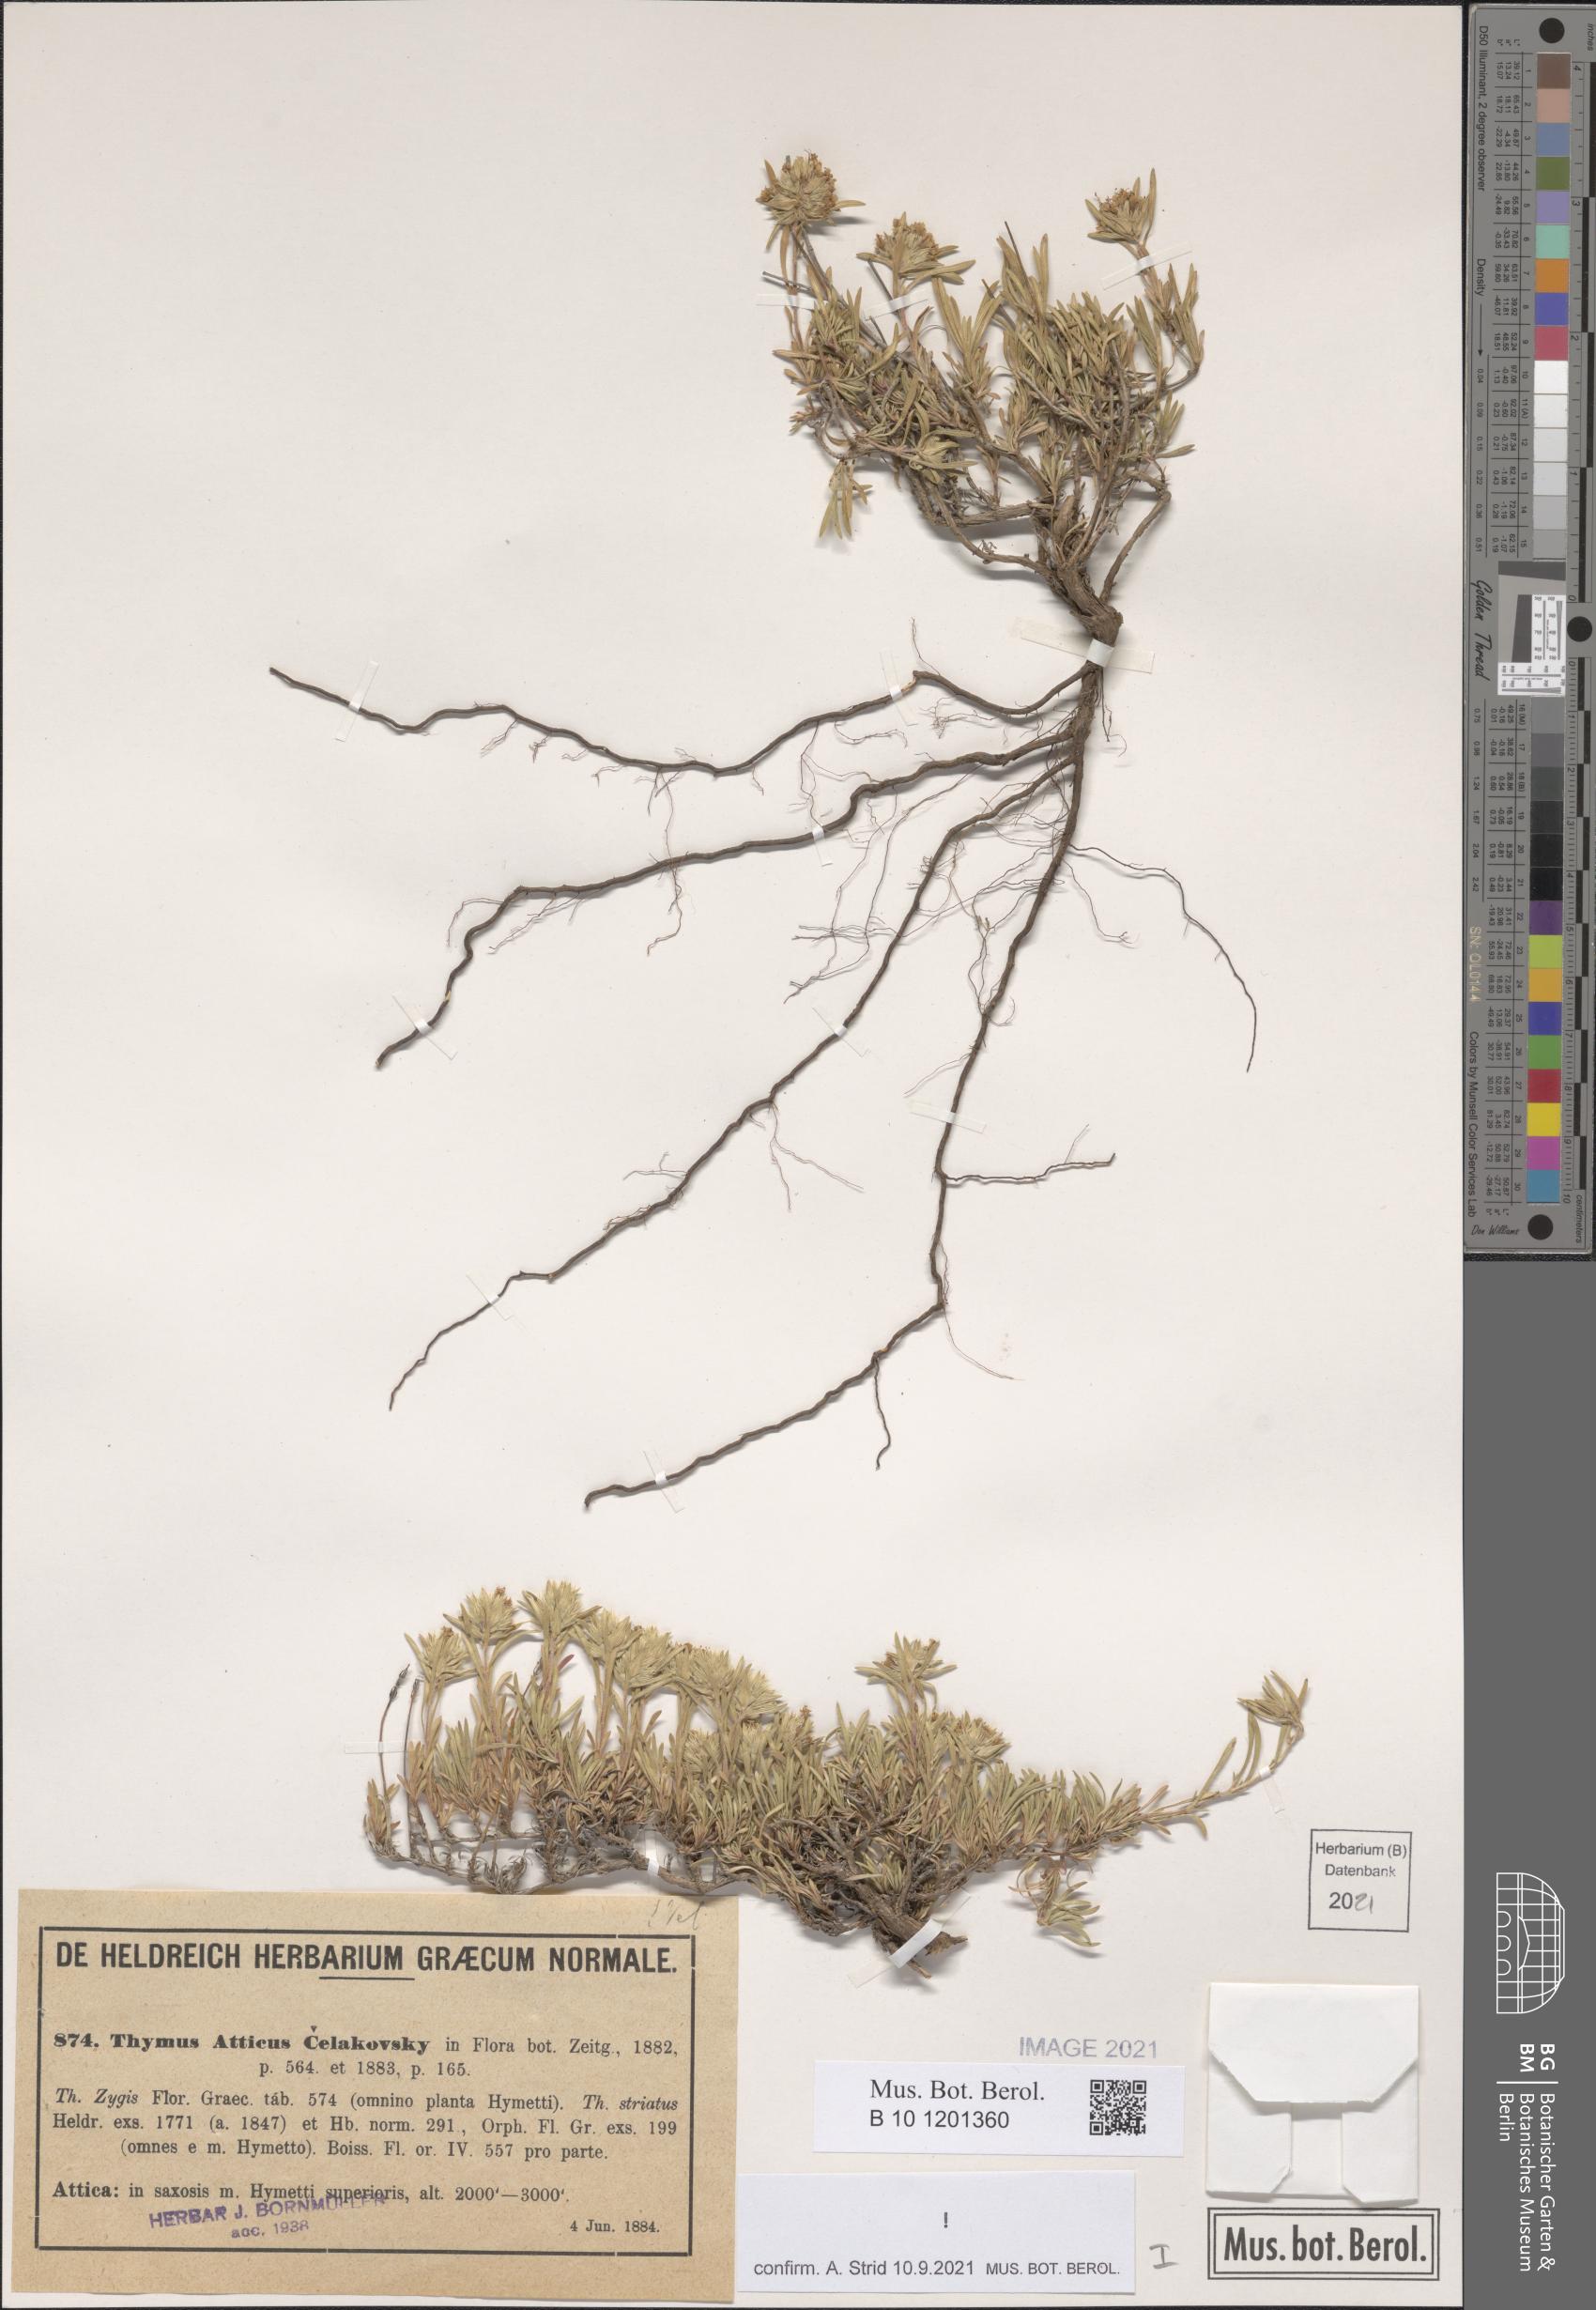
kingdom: Plantae
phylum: Tracheophyta
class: Magnoliopsida
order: Lamiales
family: Lamiaceae
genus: Thymus
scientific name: Thymus atticus
